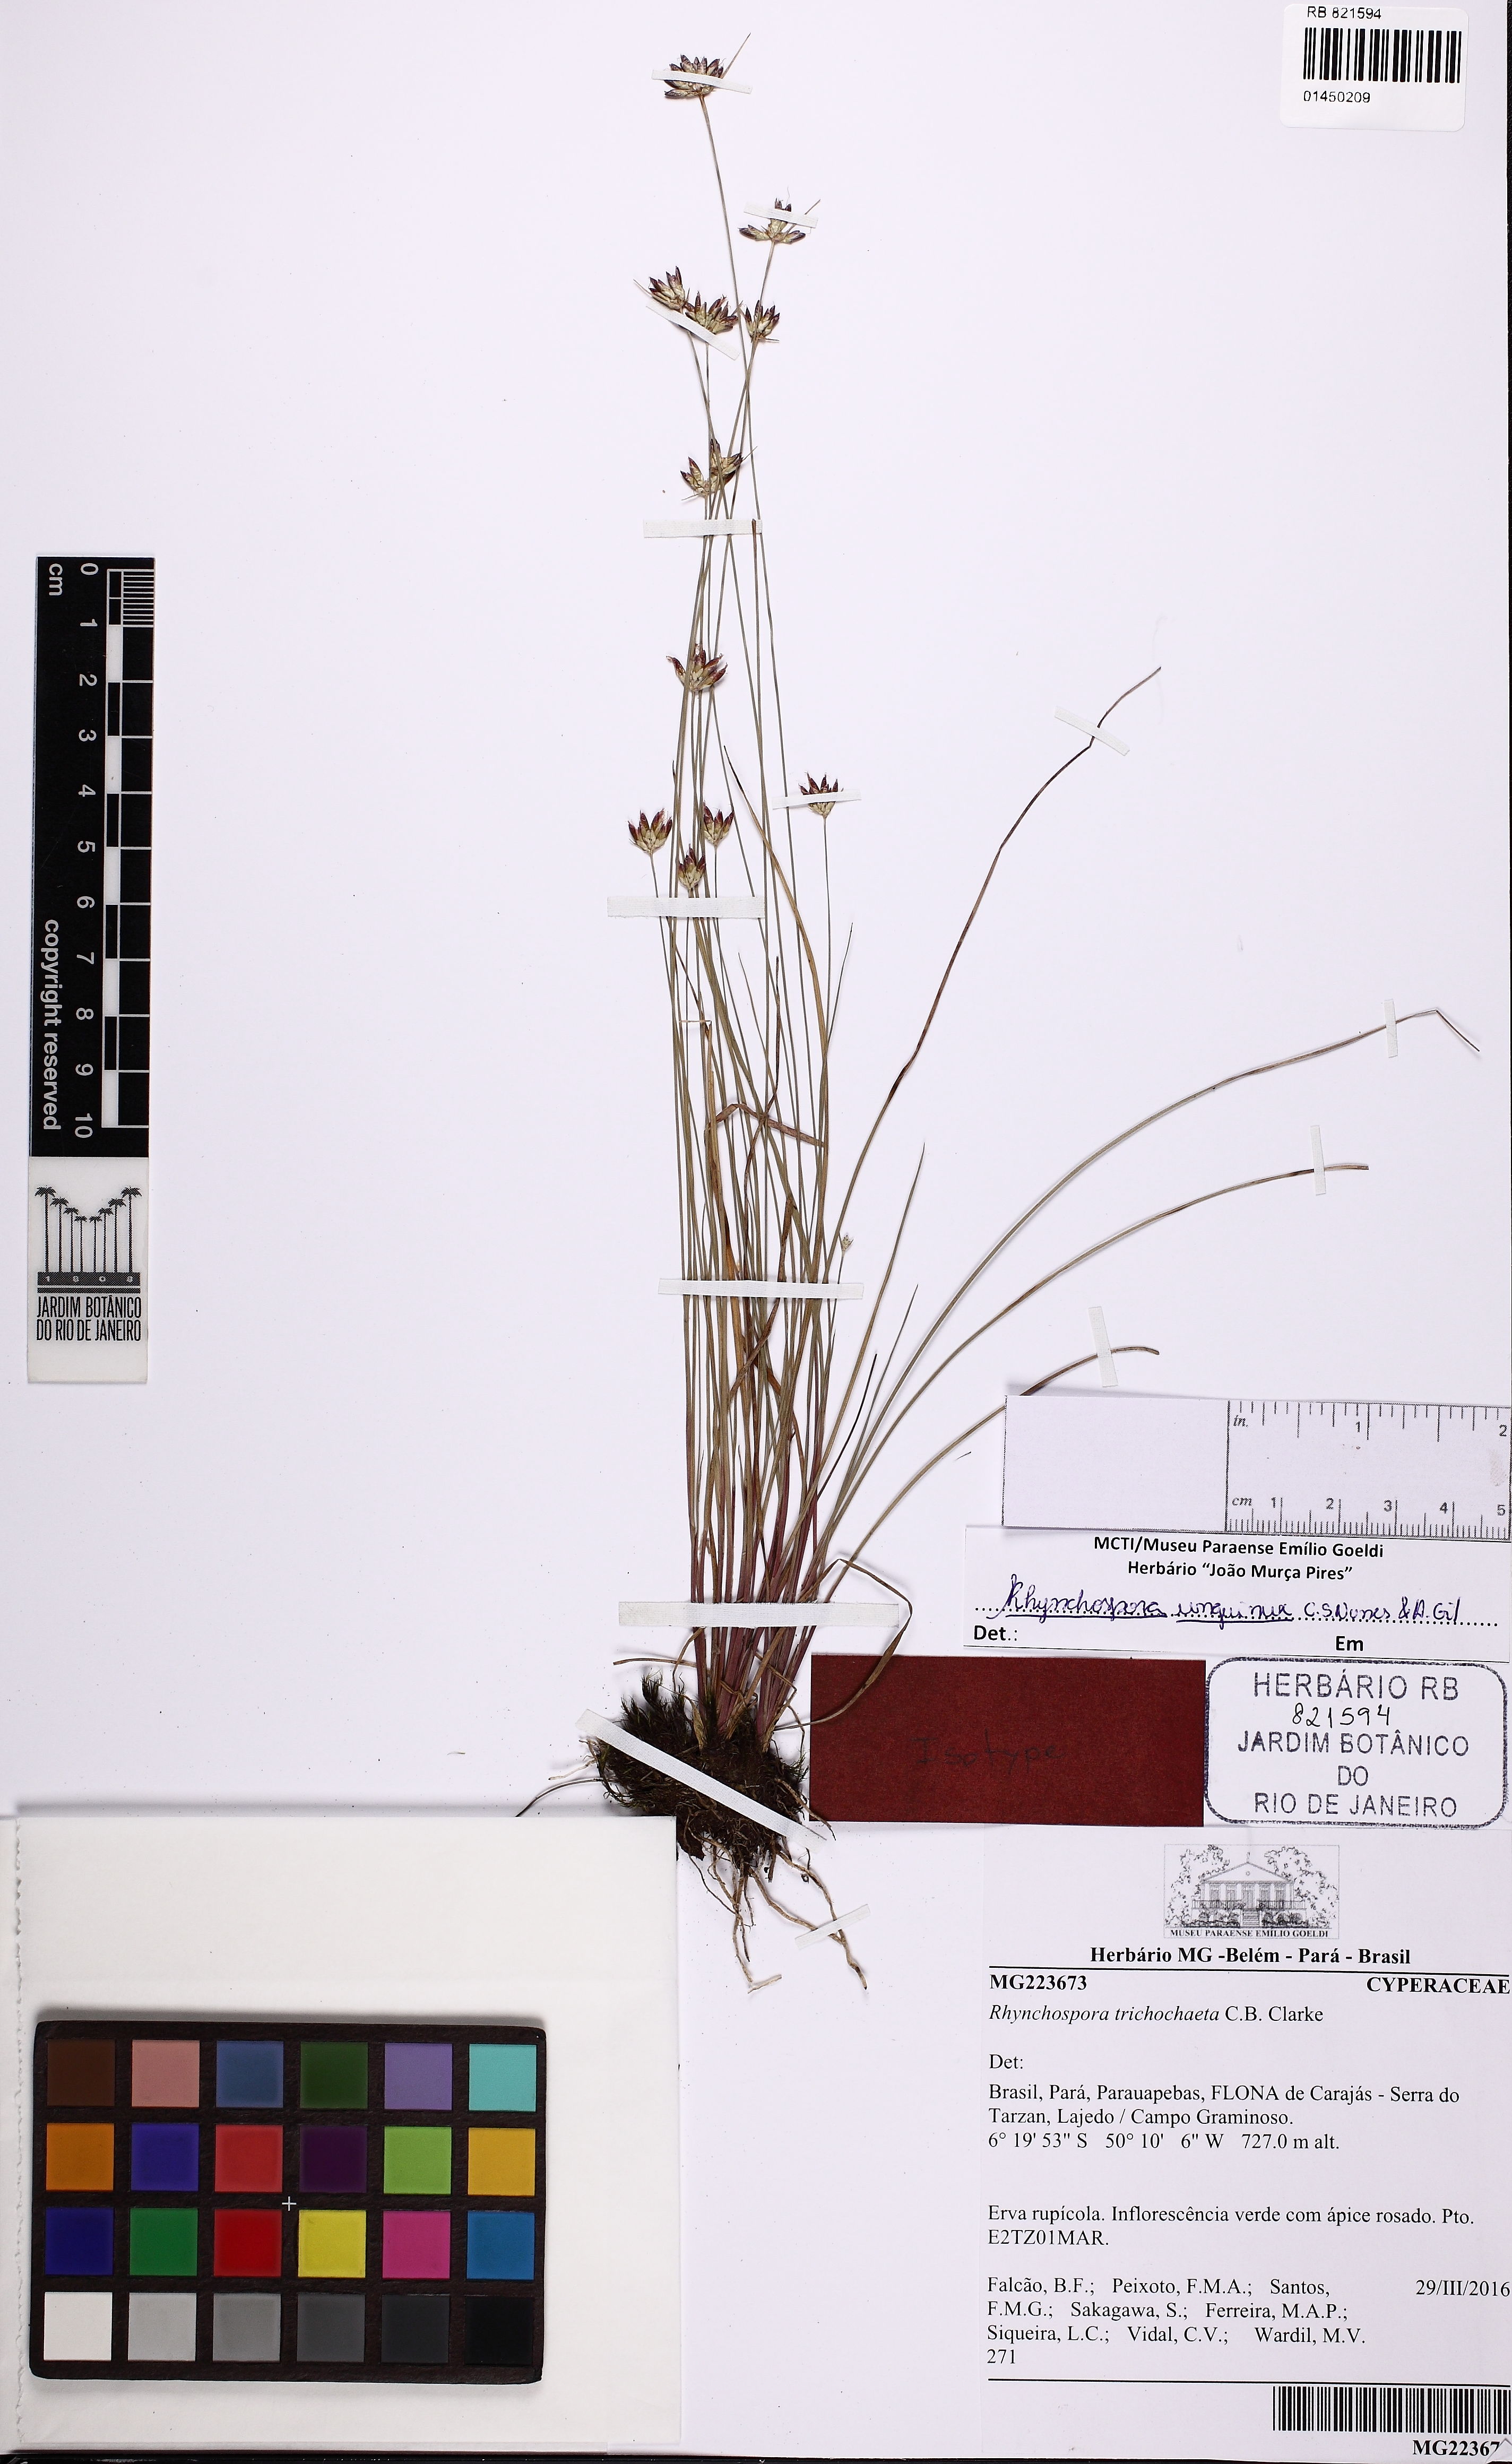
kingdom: Plantae
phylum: Tracheophyta
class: Liliopsida
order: Poales
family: Cyperaceae
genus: Rhynchospora
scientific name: Rhynchospora unguinux
